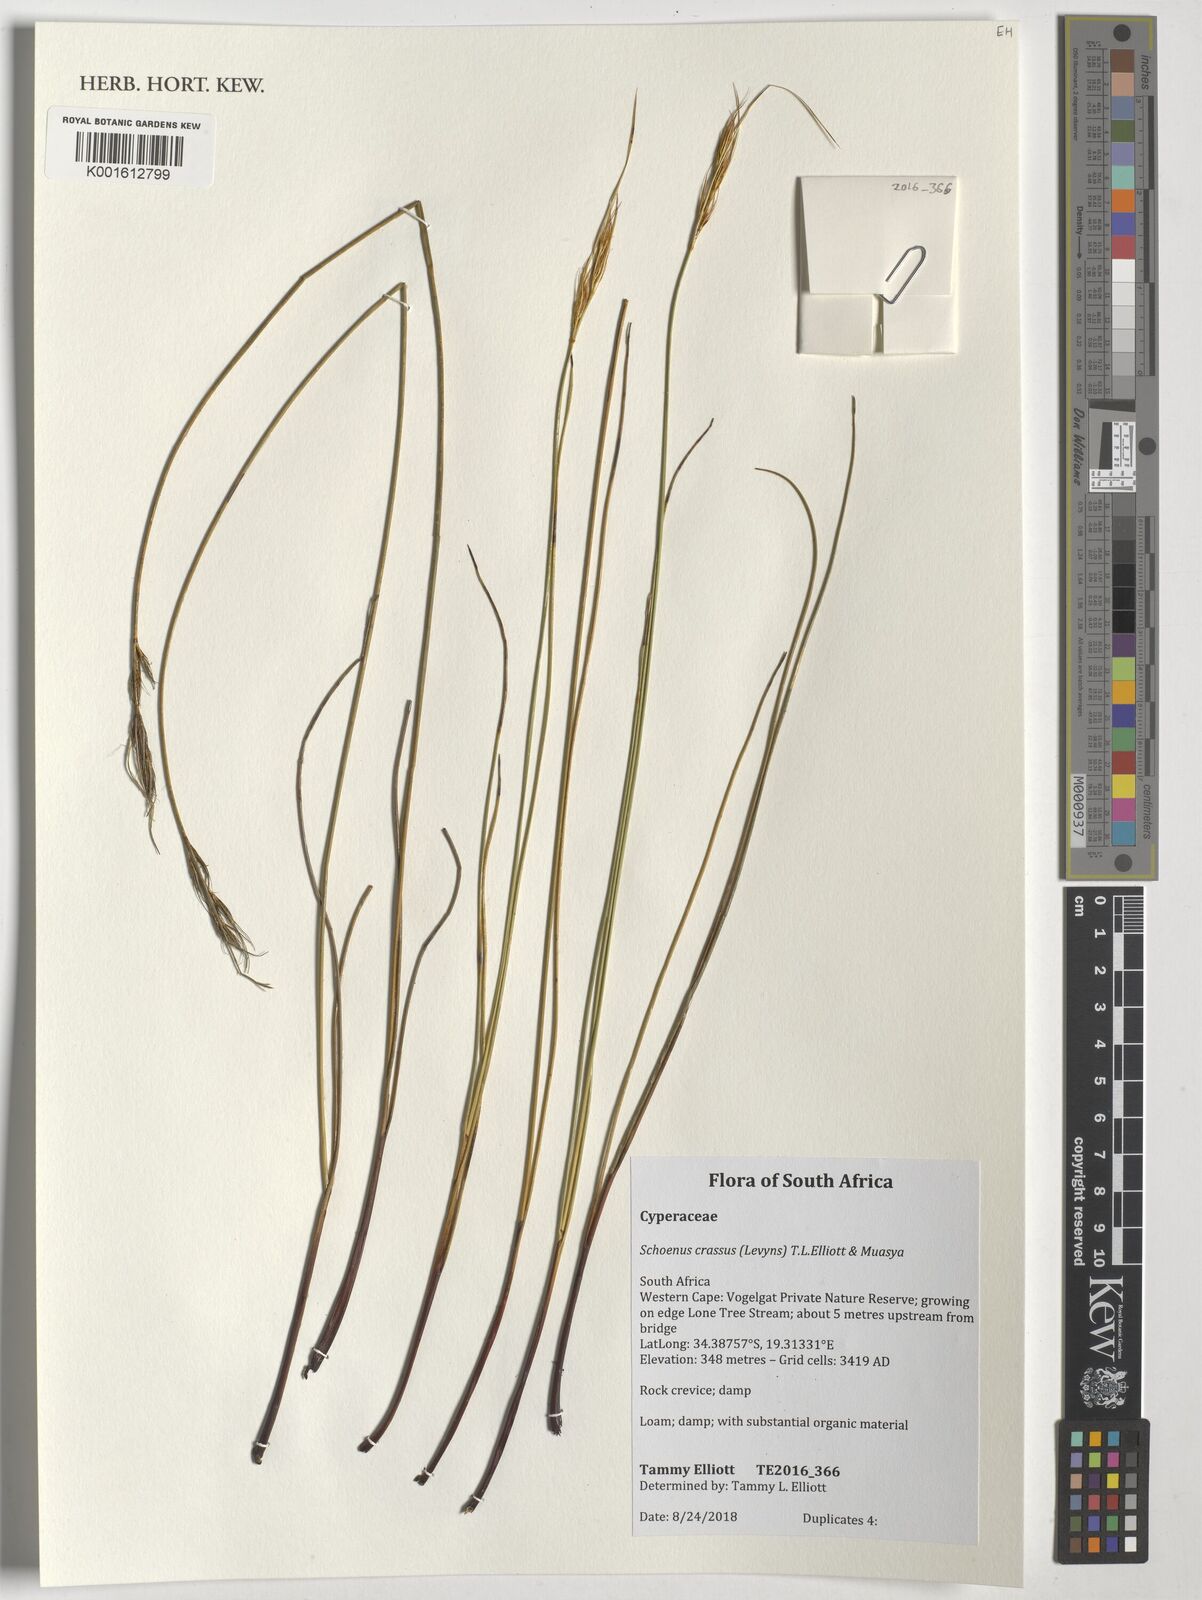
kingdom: Plantae
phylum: Tracheophyta
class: Liliopsida
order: Poales
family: Cyperaceae
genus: Schoenus
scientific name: Schoenus crassus
